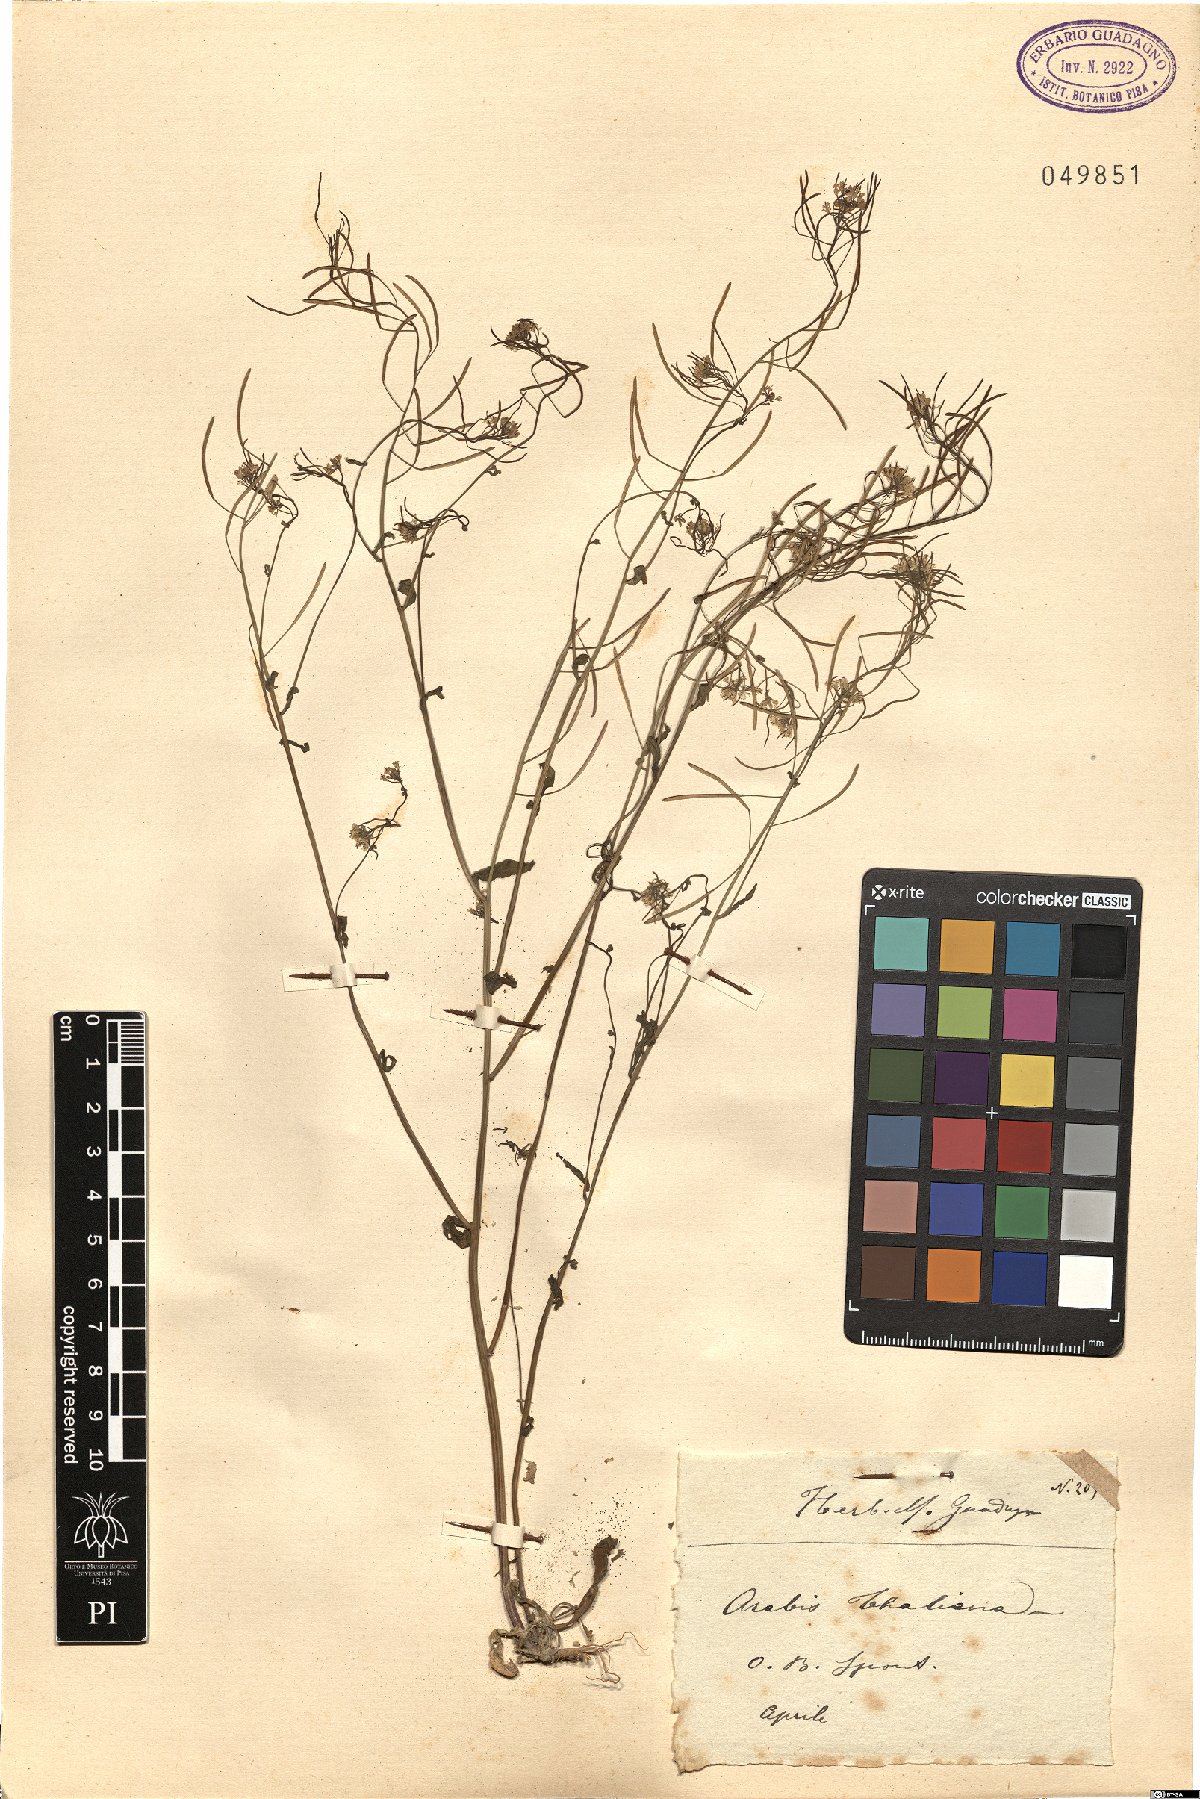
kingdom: Plantae
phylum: Tracheophyta
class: Magnoliopsida
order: Brassicales
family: Brassicaceae
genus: Arabidopsis
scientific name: Arabidopsis thaliana
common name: Thale cress
